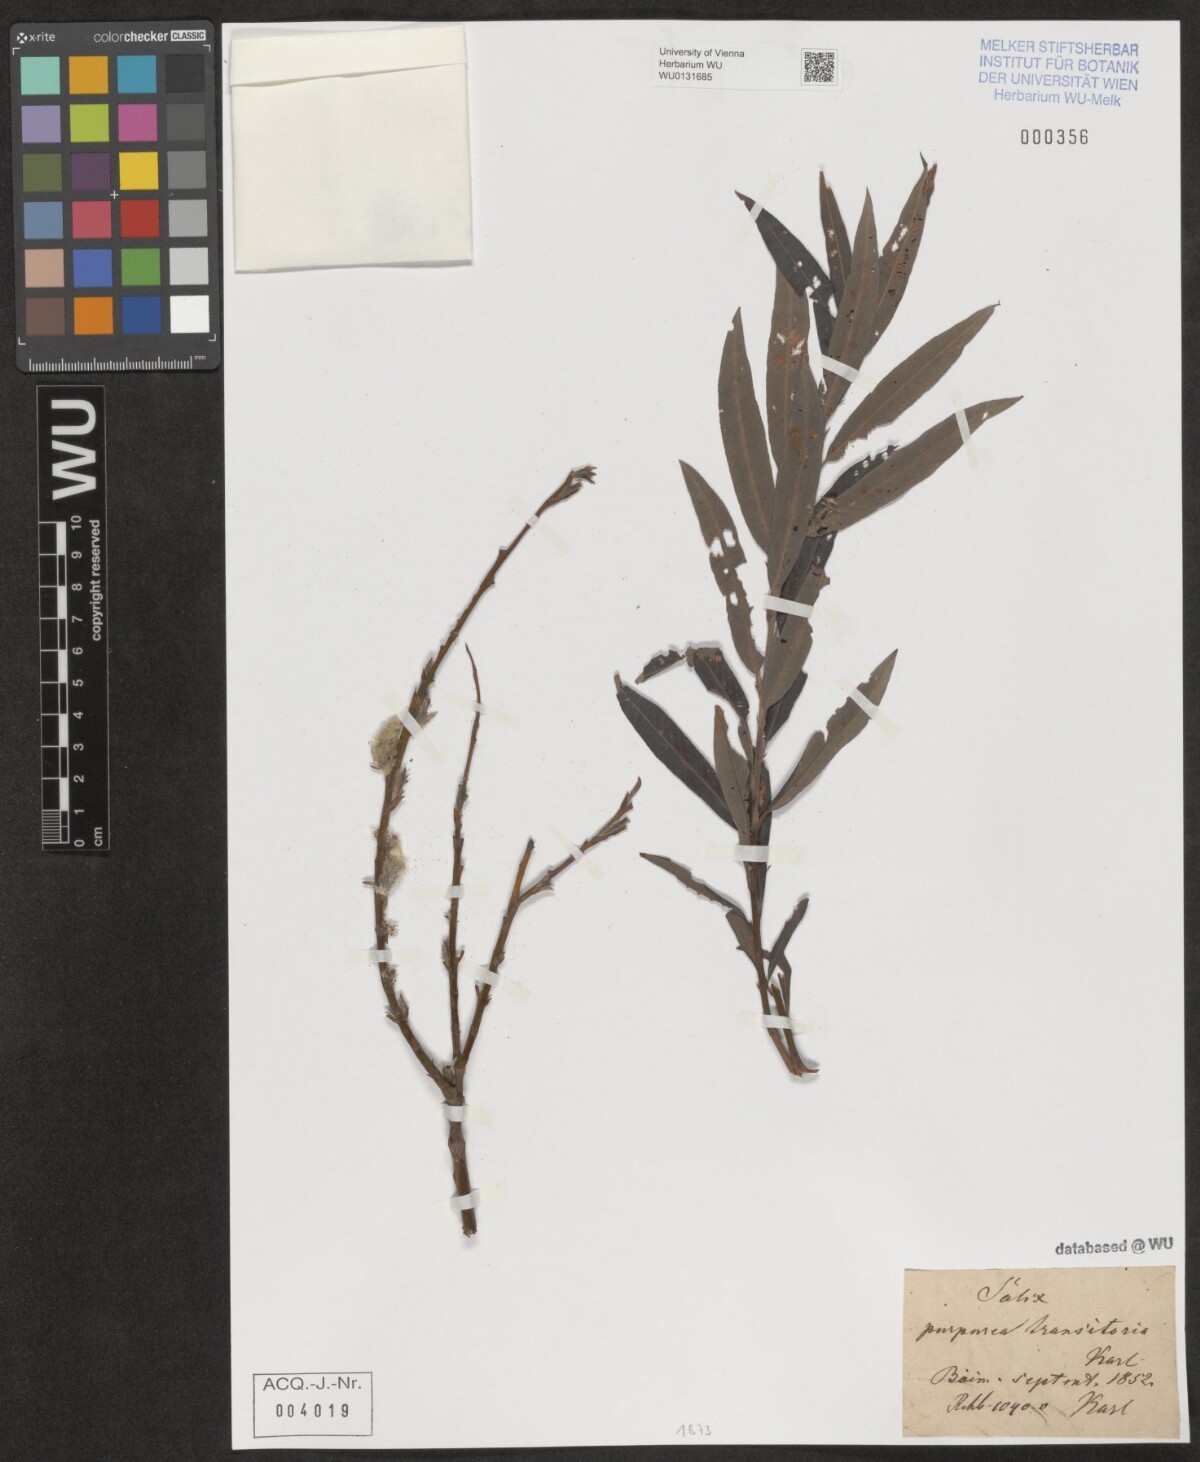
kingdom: Plantae
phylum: Tracheophyta
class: Magnoliopsida
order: Malpighiales
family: Salicaceae
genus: Salix
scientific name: Salix purpurea
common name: Purple willow
